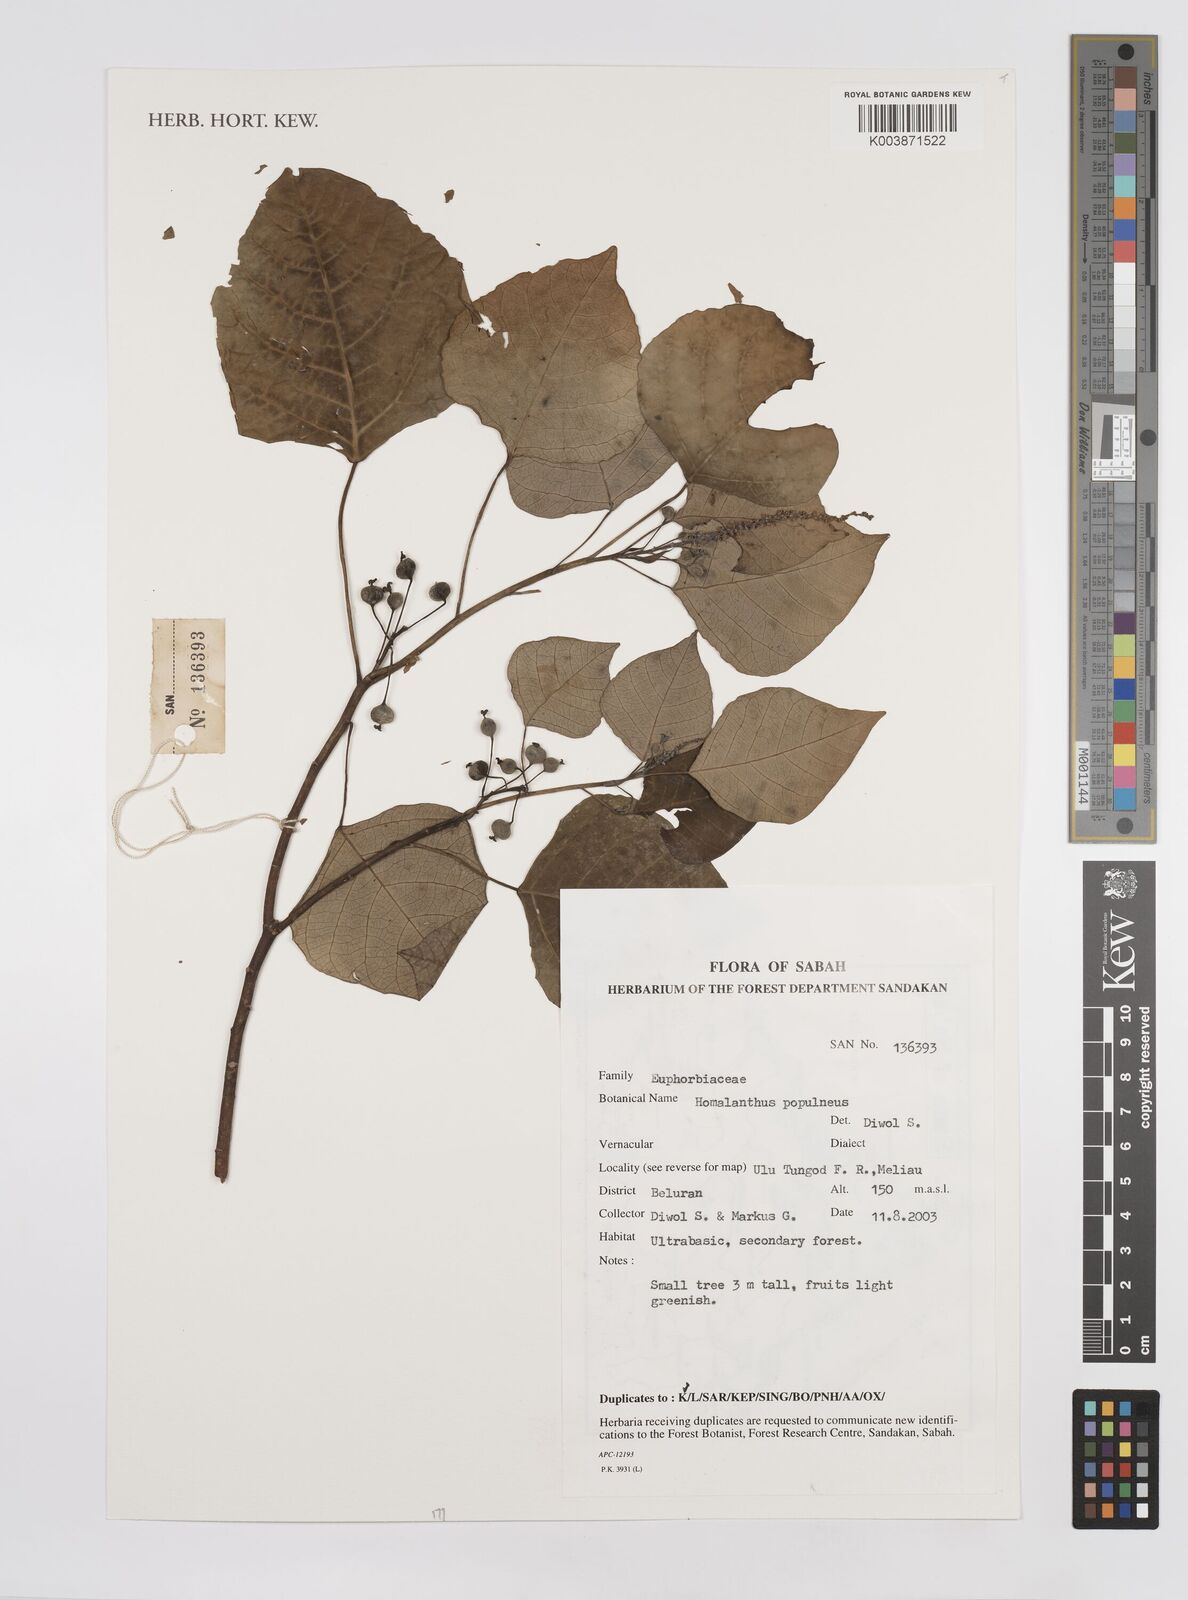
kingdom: Plantae
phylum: Tracheophyta
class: Magnoliopsida
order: Malpighiales
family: Euphorbiaceae
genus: Homalanthus
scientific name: Homalanthus populneus
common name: Spurge
